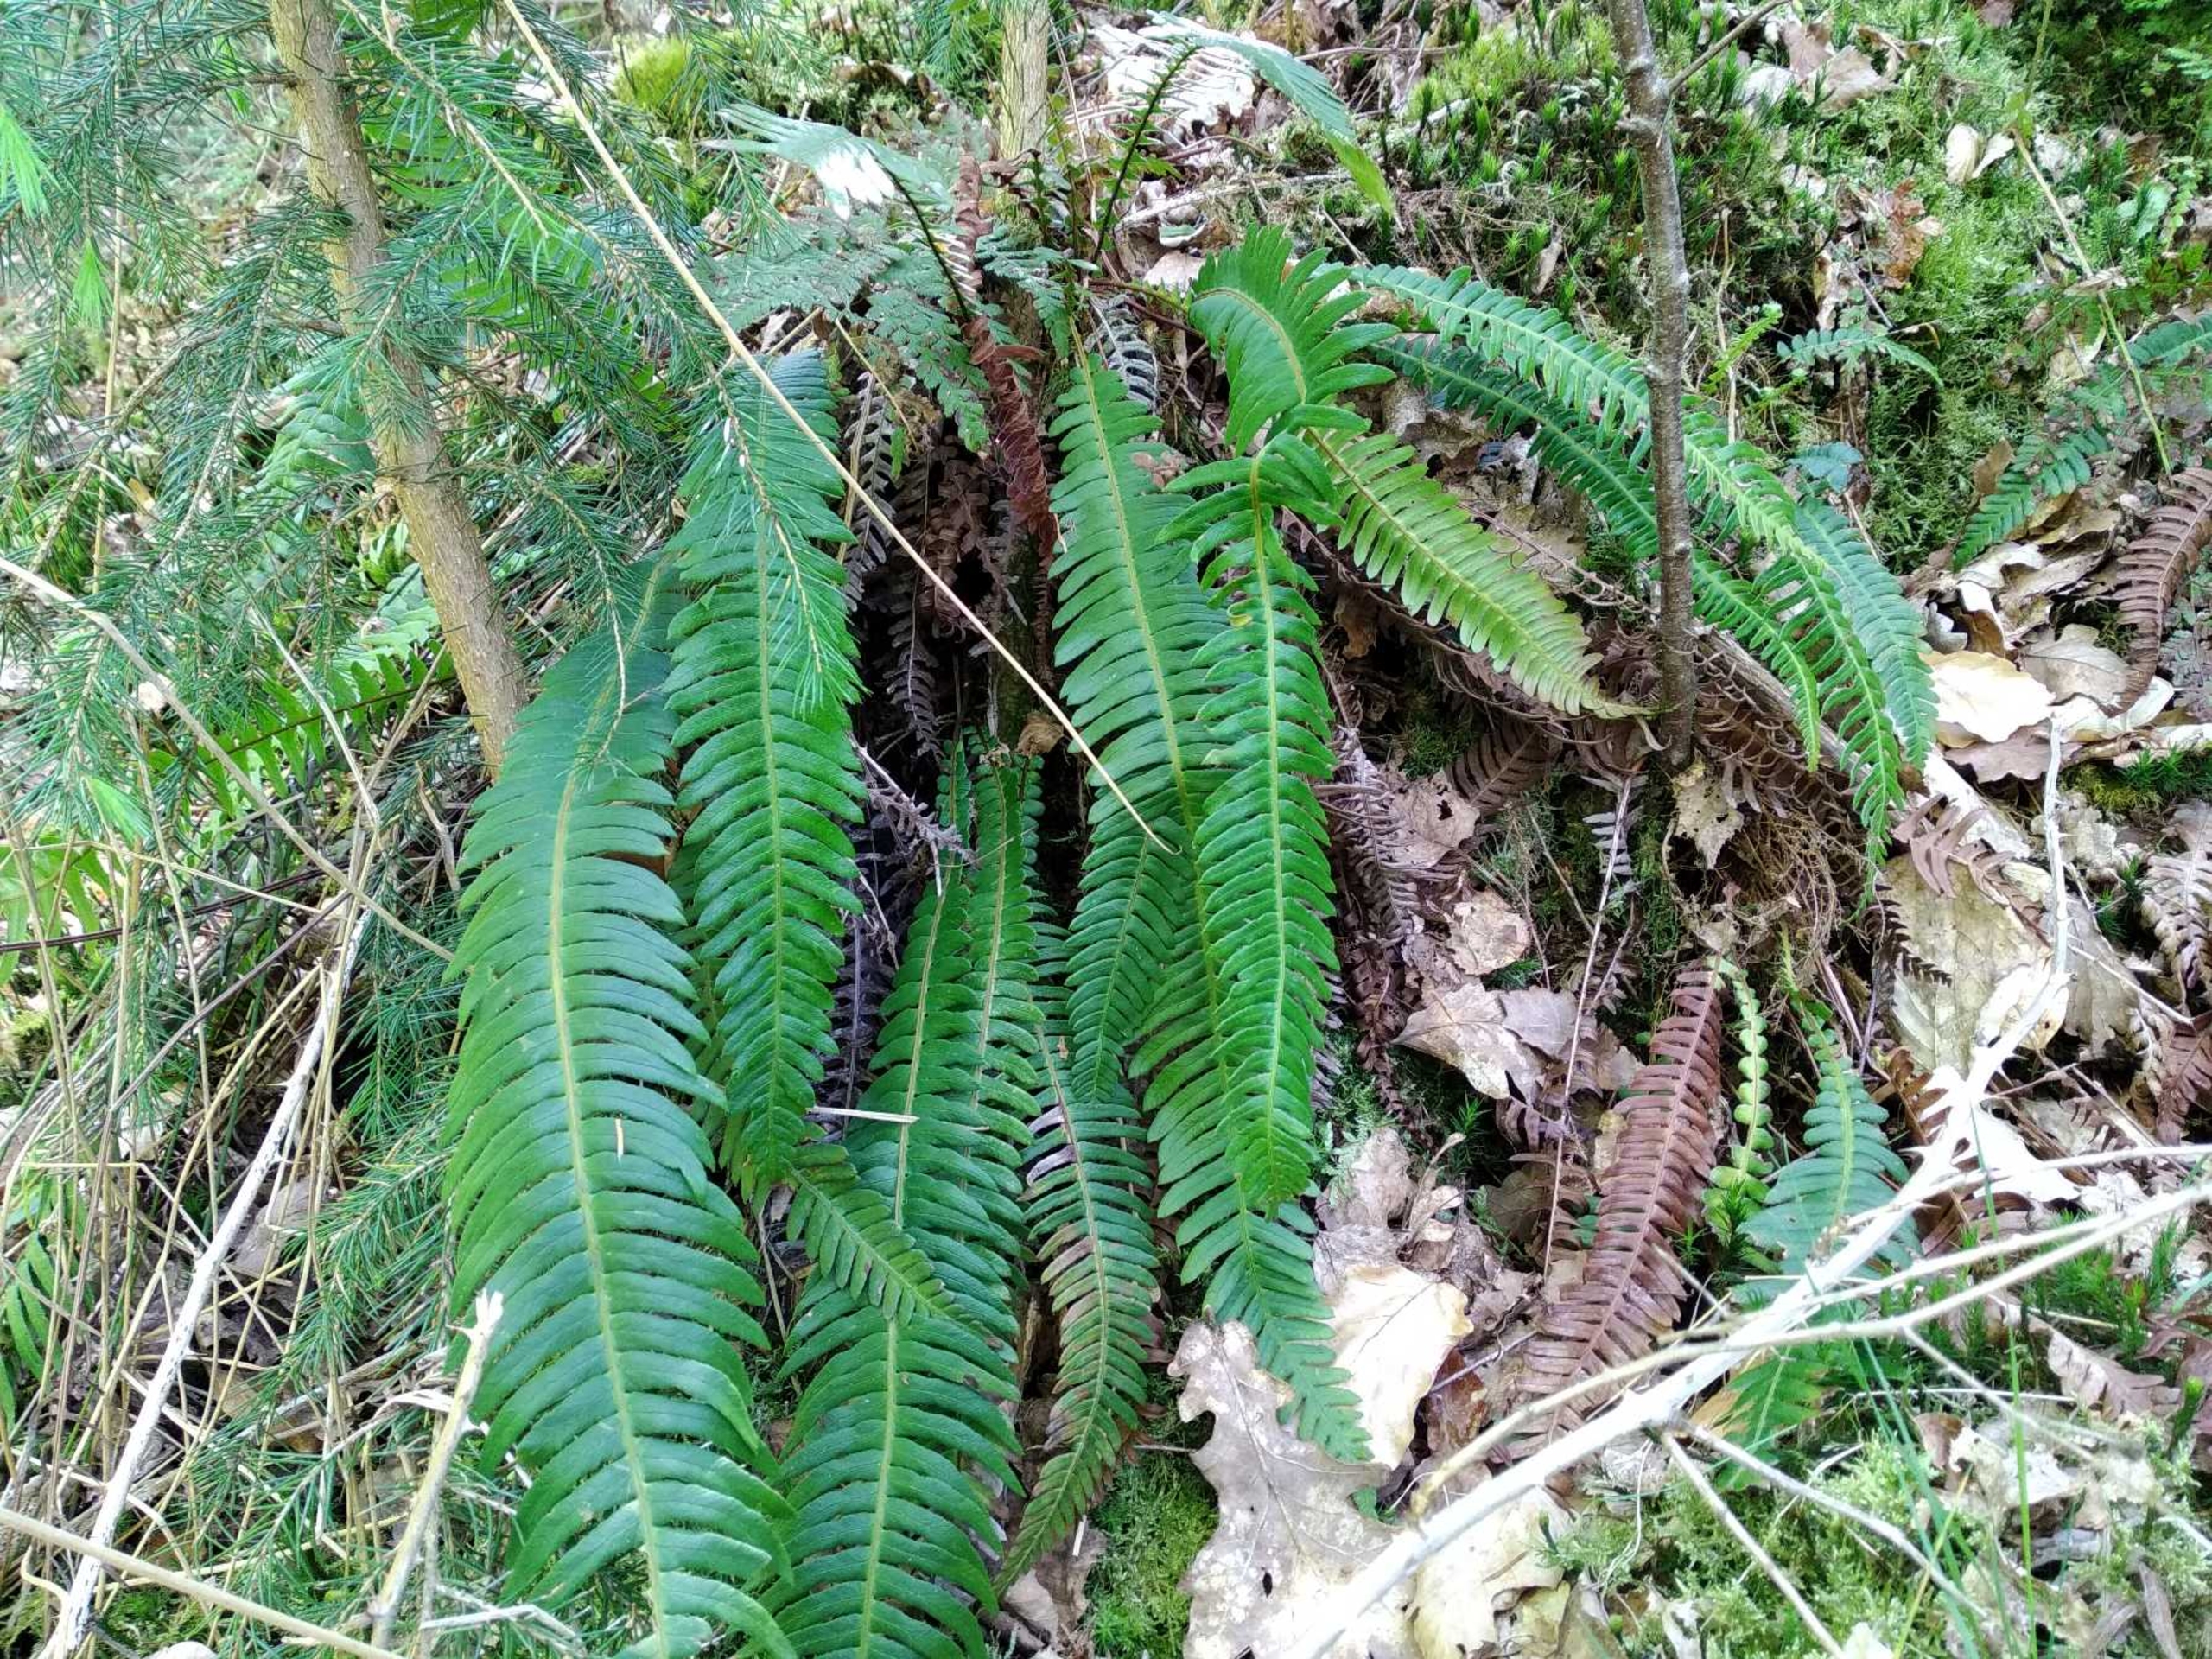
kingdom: Plantae
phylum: Tracheophyta
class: Polypodiopsida
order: Polypodiales
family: Blechnaceae
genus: Struthiopteris
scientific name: Struthiopteris spicant
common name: Kambregne
